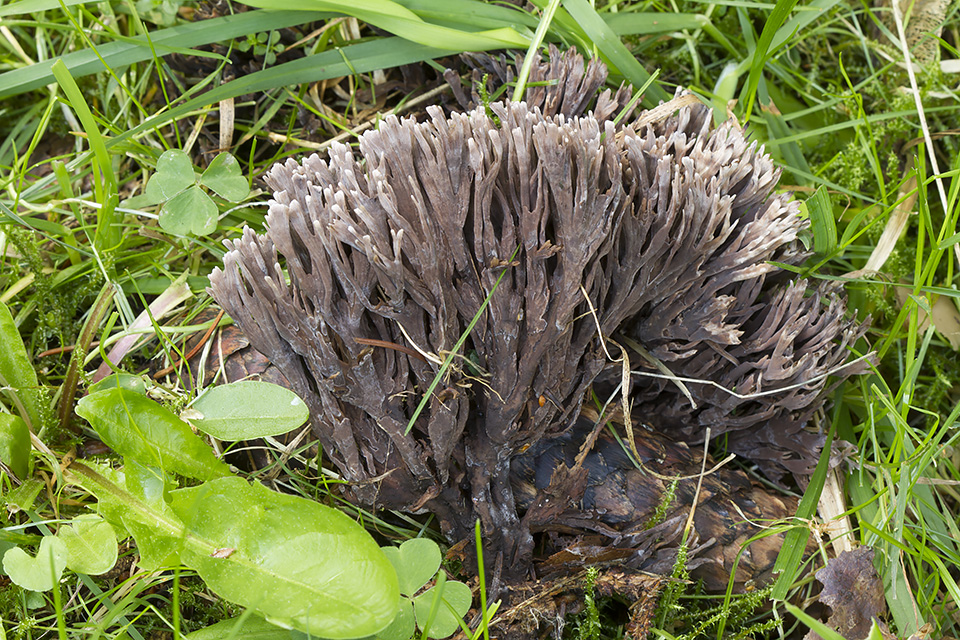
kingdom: Fungi
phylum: Basidiomycota
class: Agaricomycetes
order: Thelephorales
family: Thelephoraceae
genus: Thelephora
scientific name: Thelephora palmata
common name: grenet frynsesvamp
